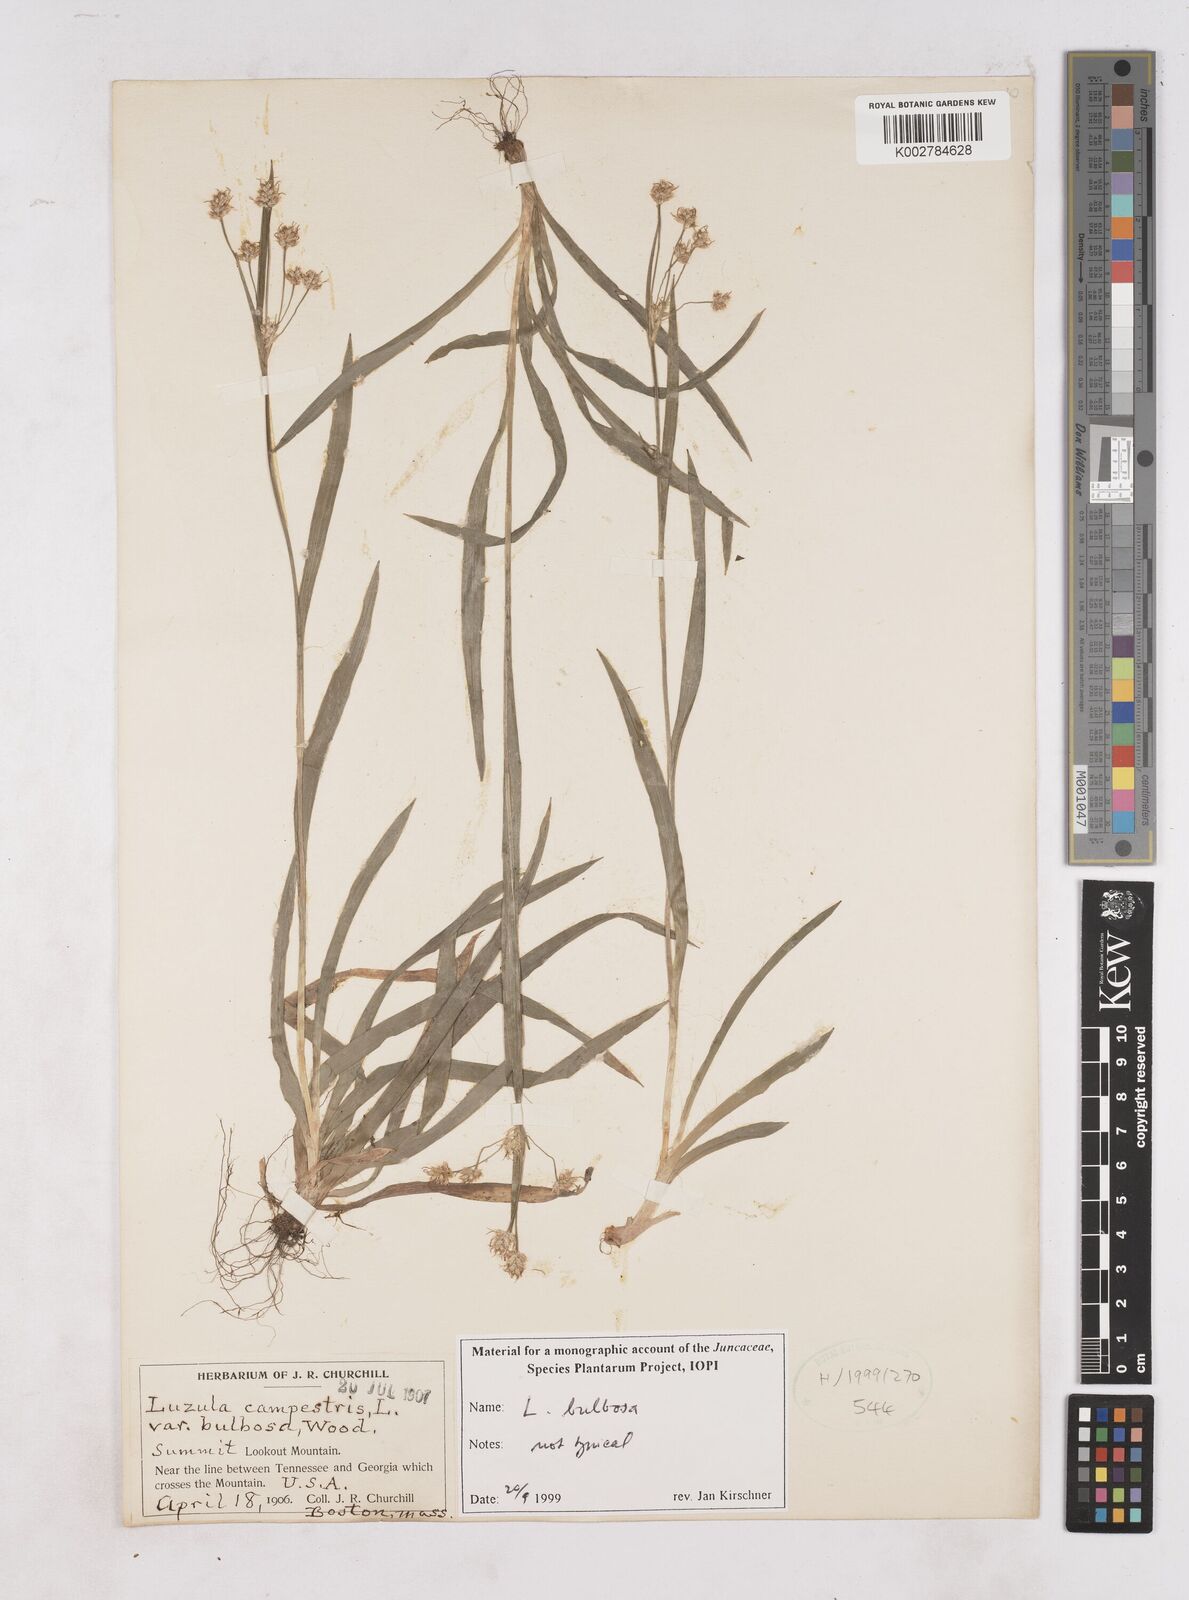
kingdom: Plantae
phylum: Tracheophyta
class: Liliopsida
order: Poales
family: Juncaceae
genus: Luzula
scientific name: Luzula bulbosa
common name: Bulbous woodrush
